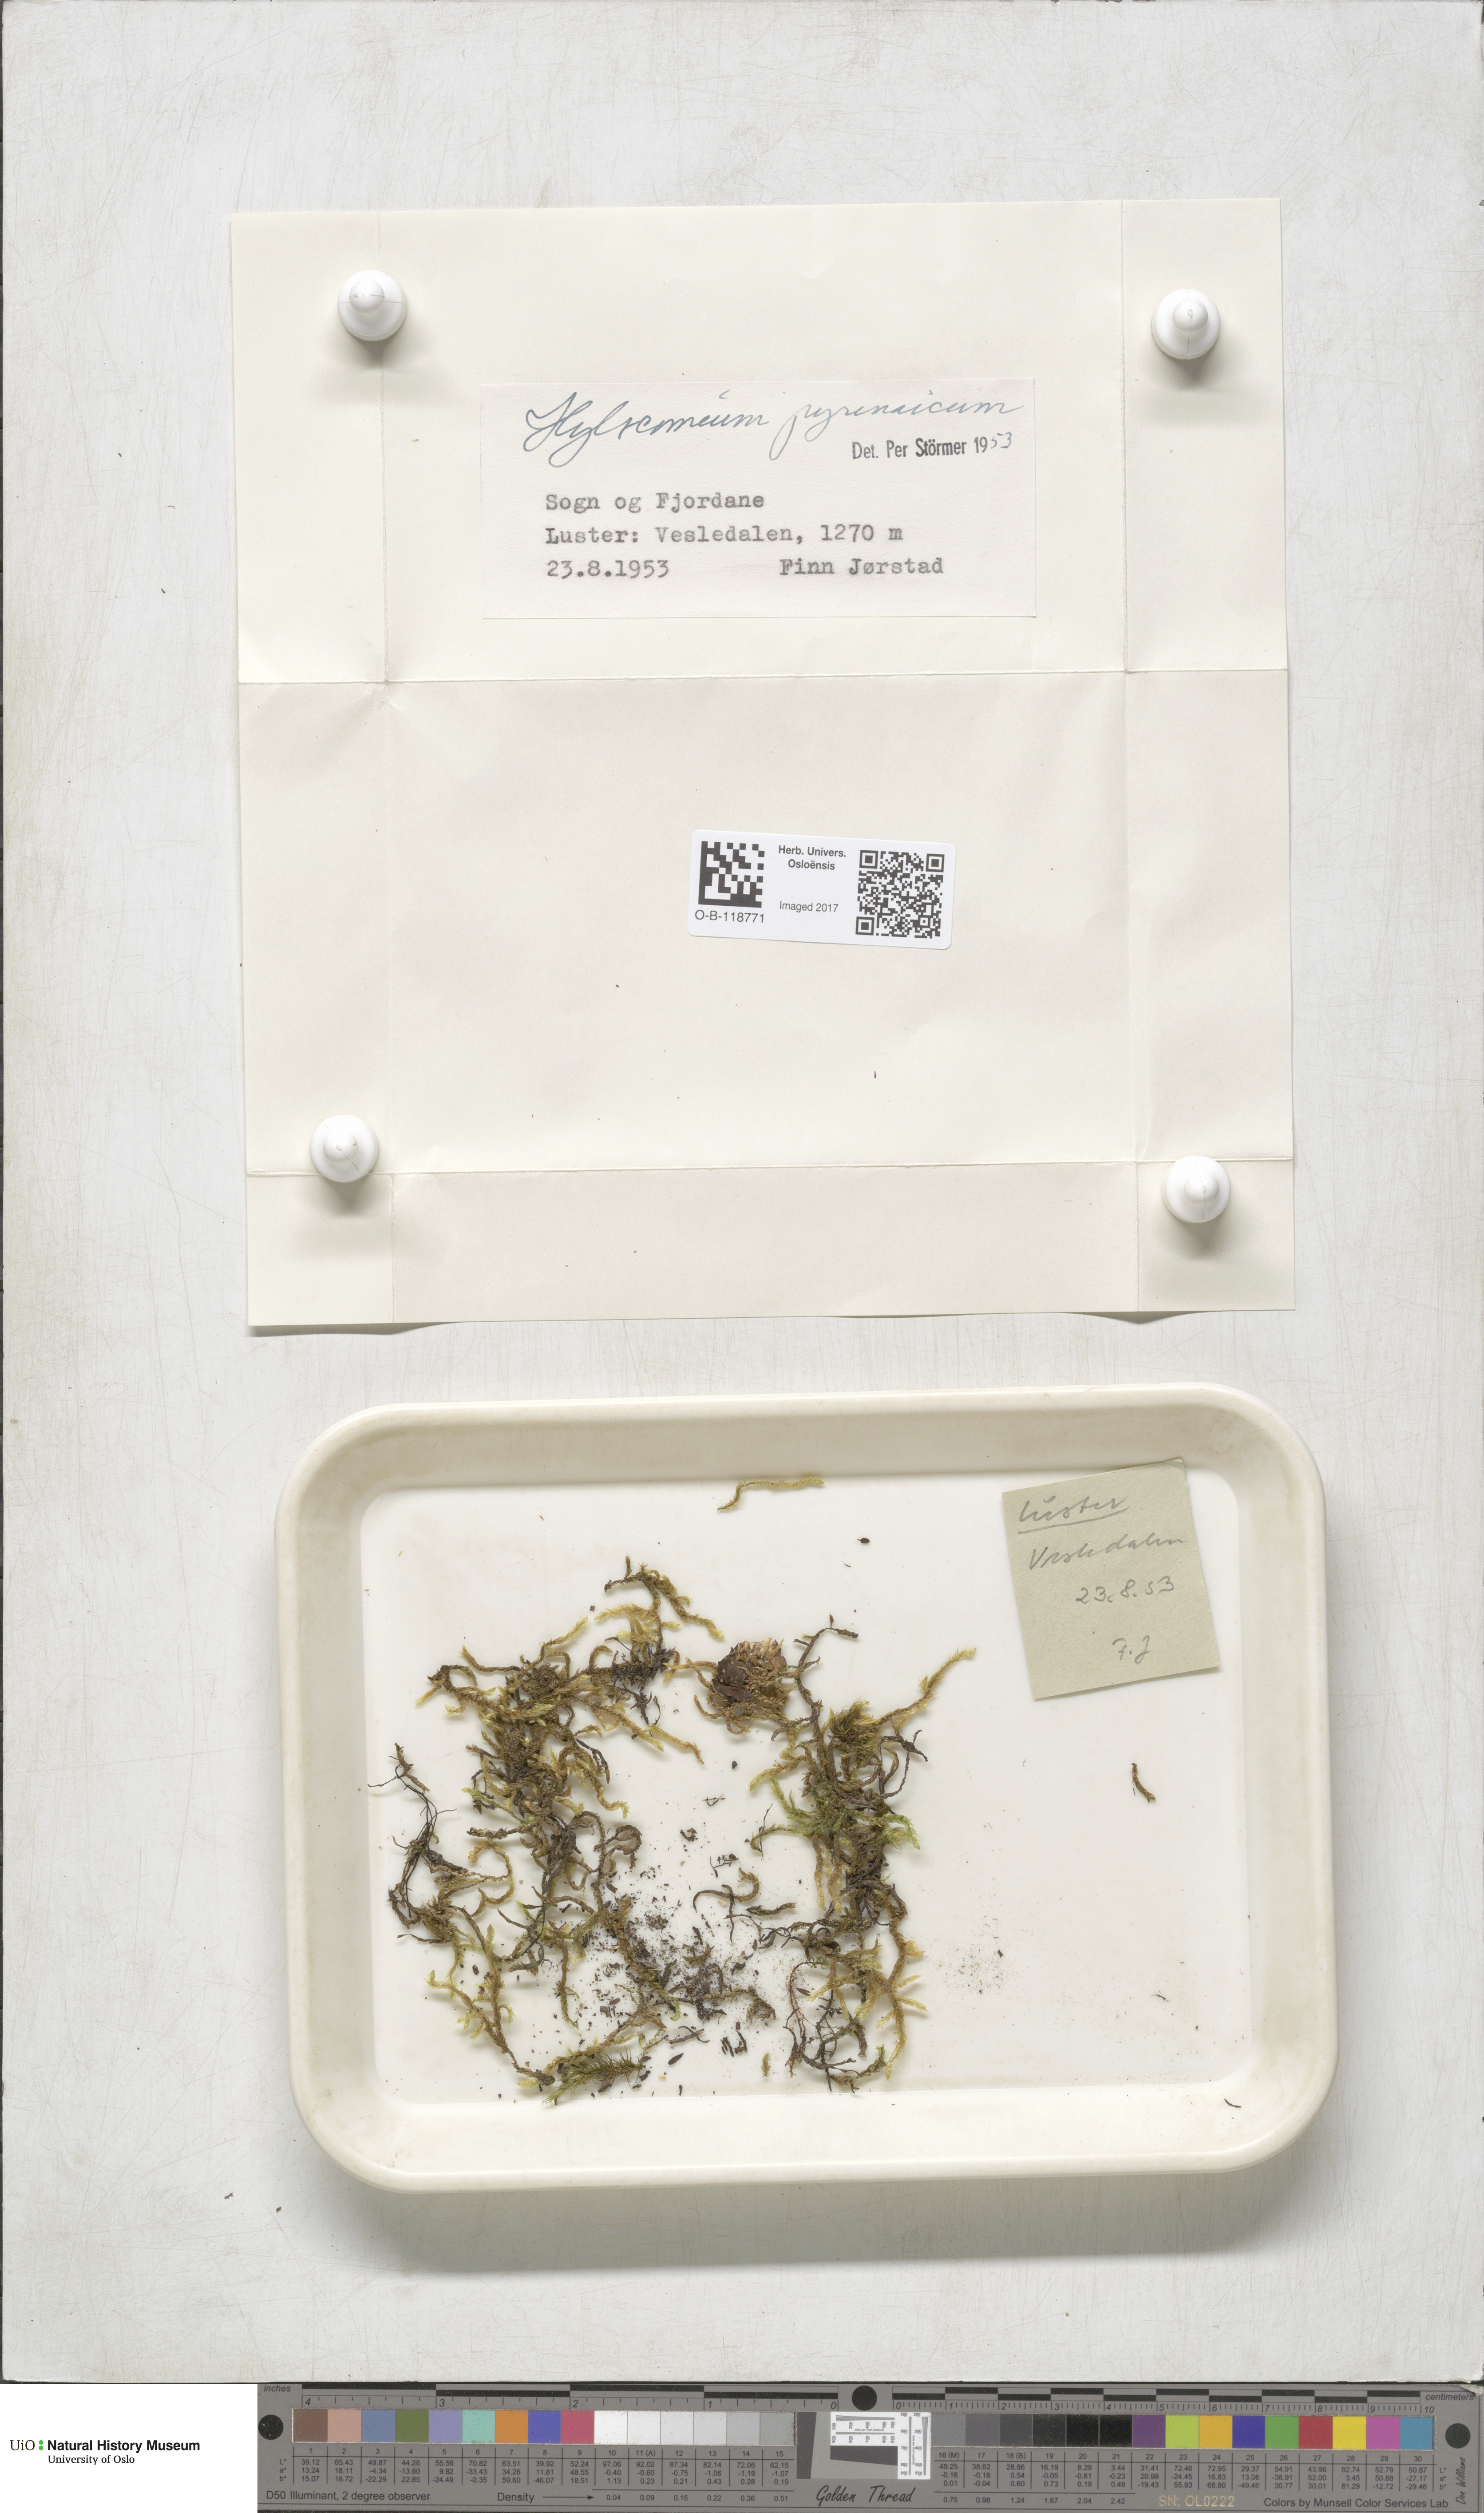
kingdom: Plantae
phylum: Bryophyta
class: Bryopsida
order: Hypnales
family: Hylocomiaceae
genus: Hylocomiastrum
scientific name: Hylocomiastrum pyrenaicum
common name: Oake s wood moss
